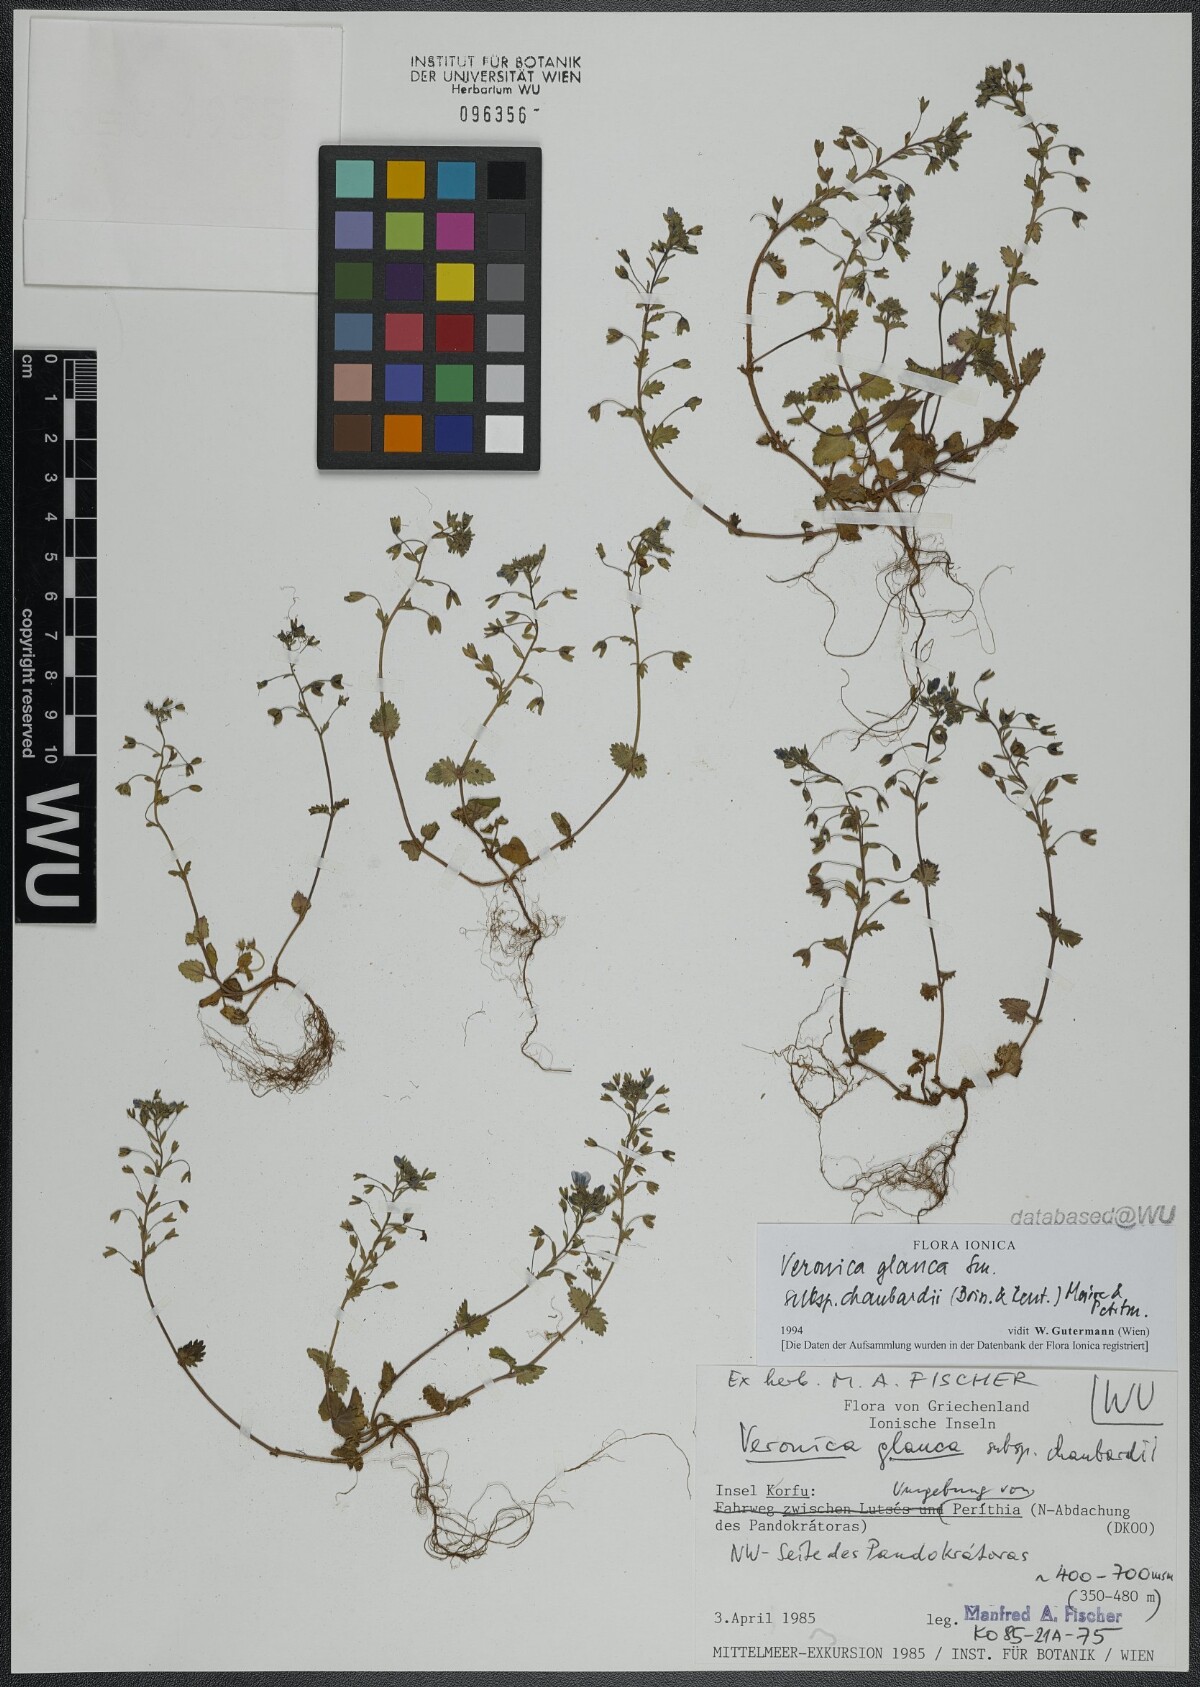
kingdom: Plantae
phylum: Tracheophyta
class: Magnoliopsida
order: Lamiales
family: Plantaginaceae
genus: Veronica
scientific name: Veronica glauca
